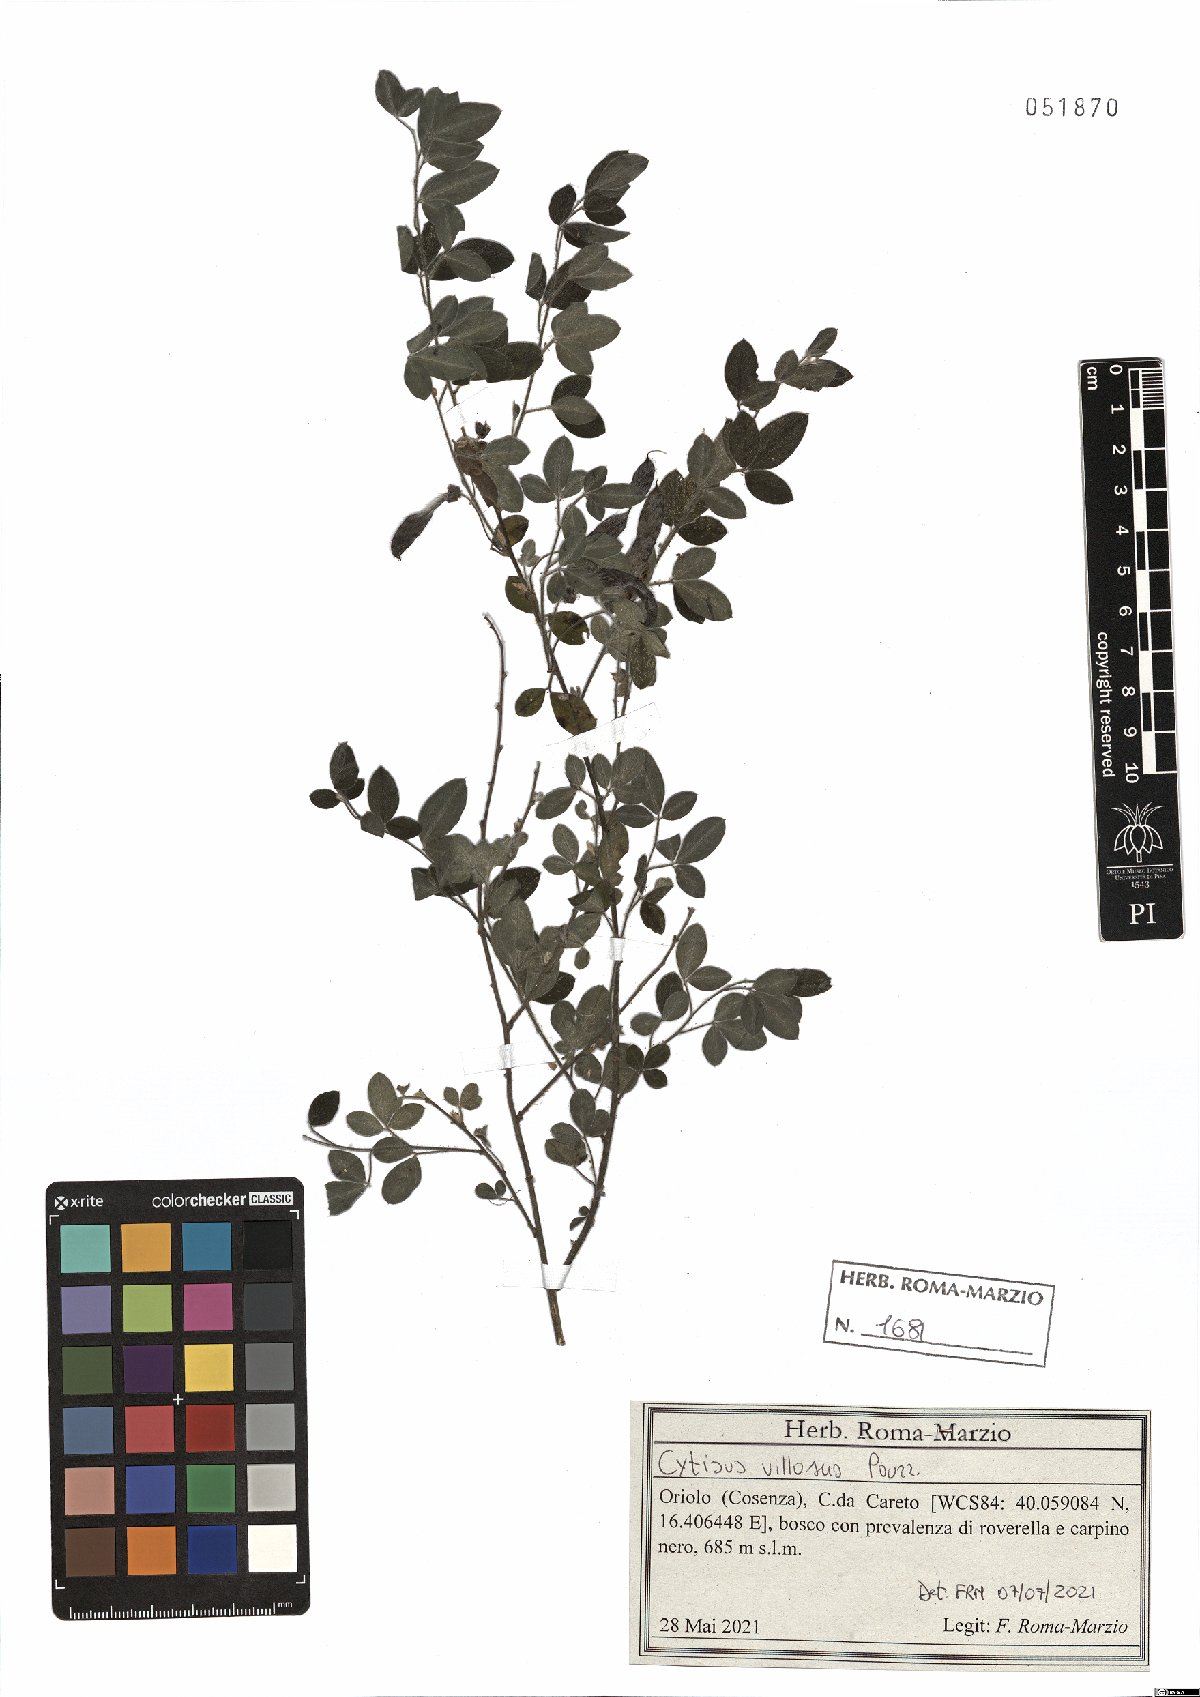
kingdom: Plantae
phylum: Tracheophyta
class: Magnoliopsida
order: Fabales
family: Fabaceae
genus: Cytisus
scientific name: Cytisus villosus
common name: Hairybroom
